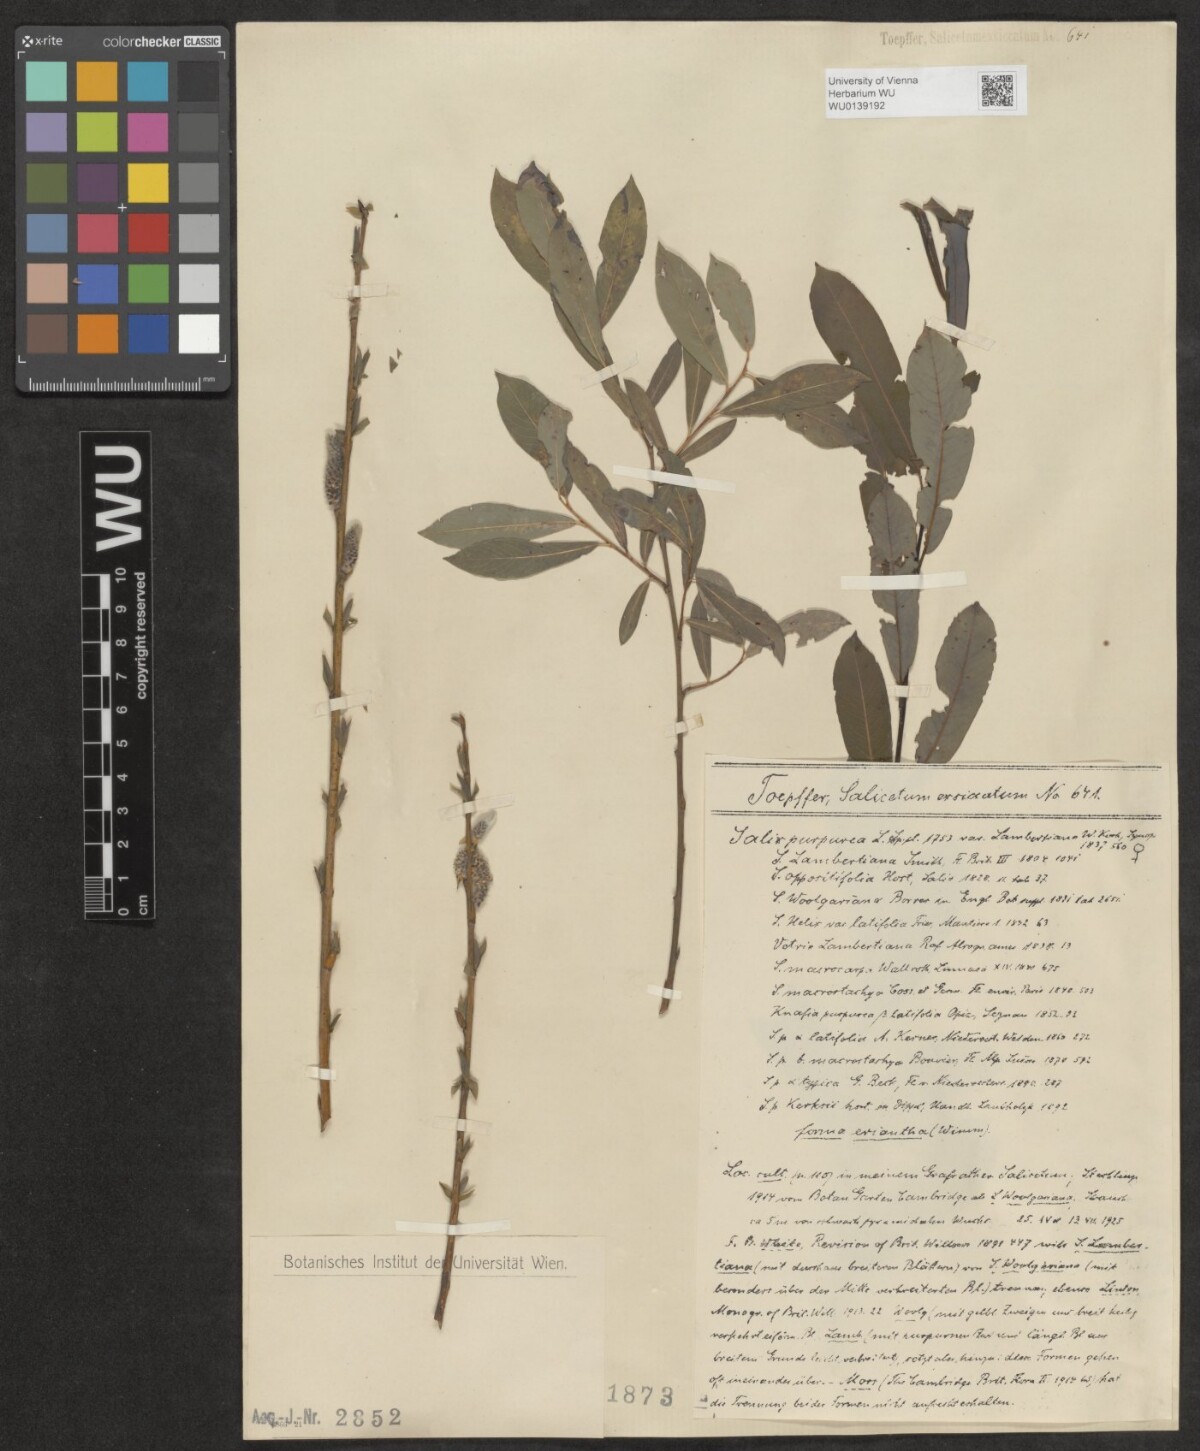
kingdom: Plantae
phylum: Tracheophyta
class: Magnoliopsida
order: Malpighiales
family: Salicaceae
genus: Salix
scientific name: Salix purpurea
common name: Purple willow
